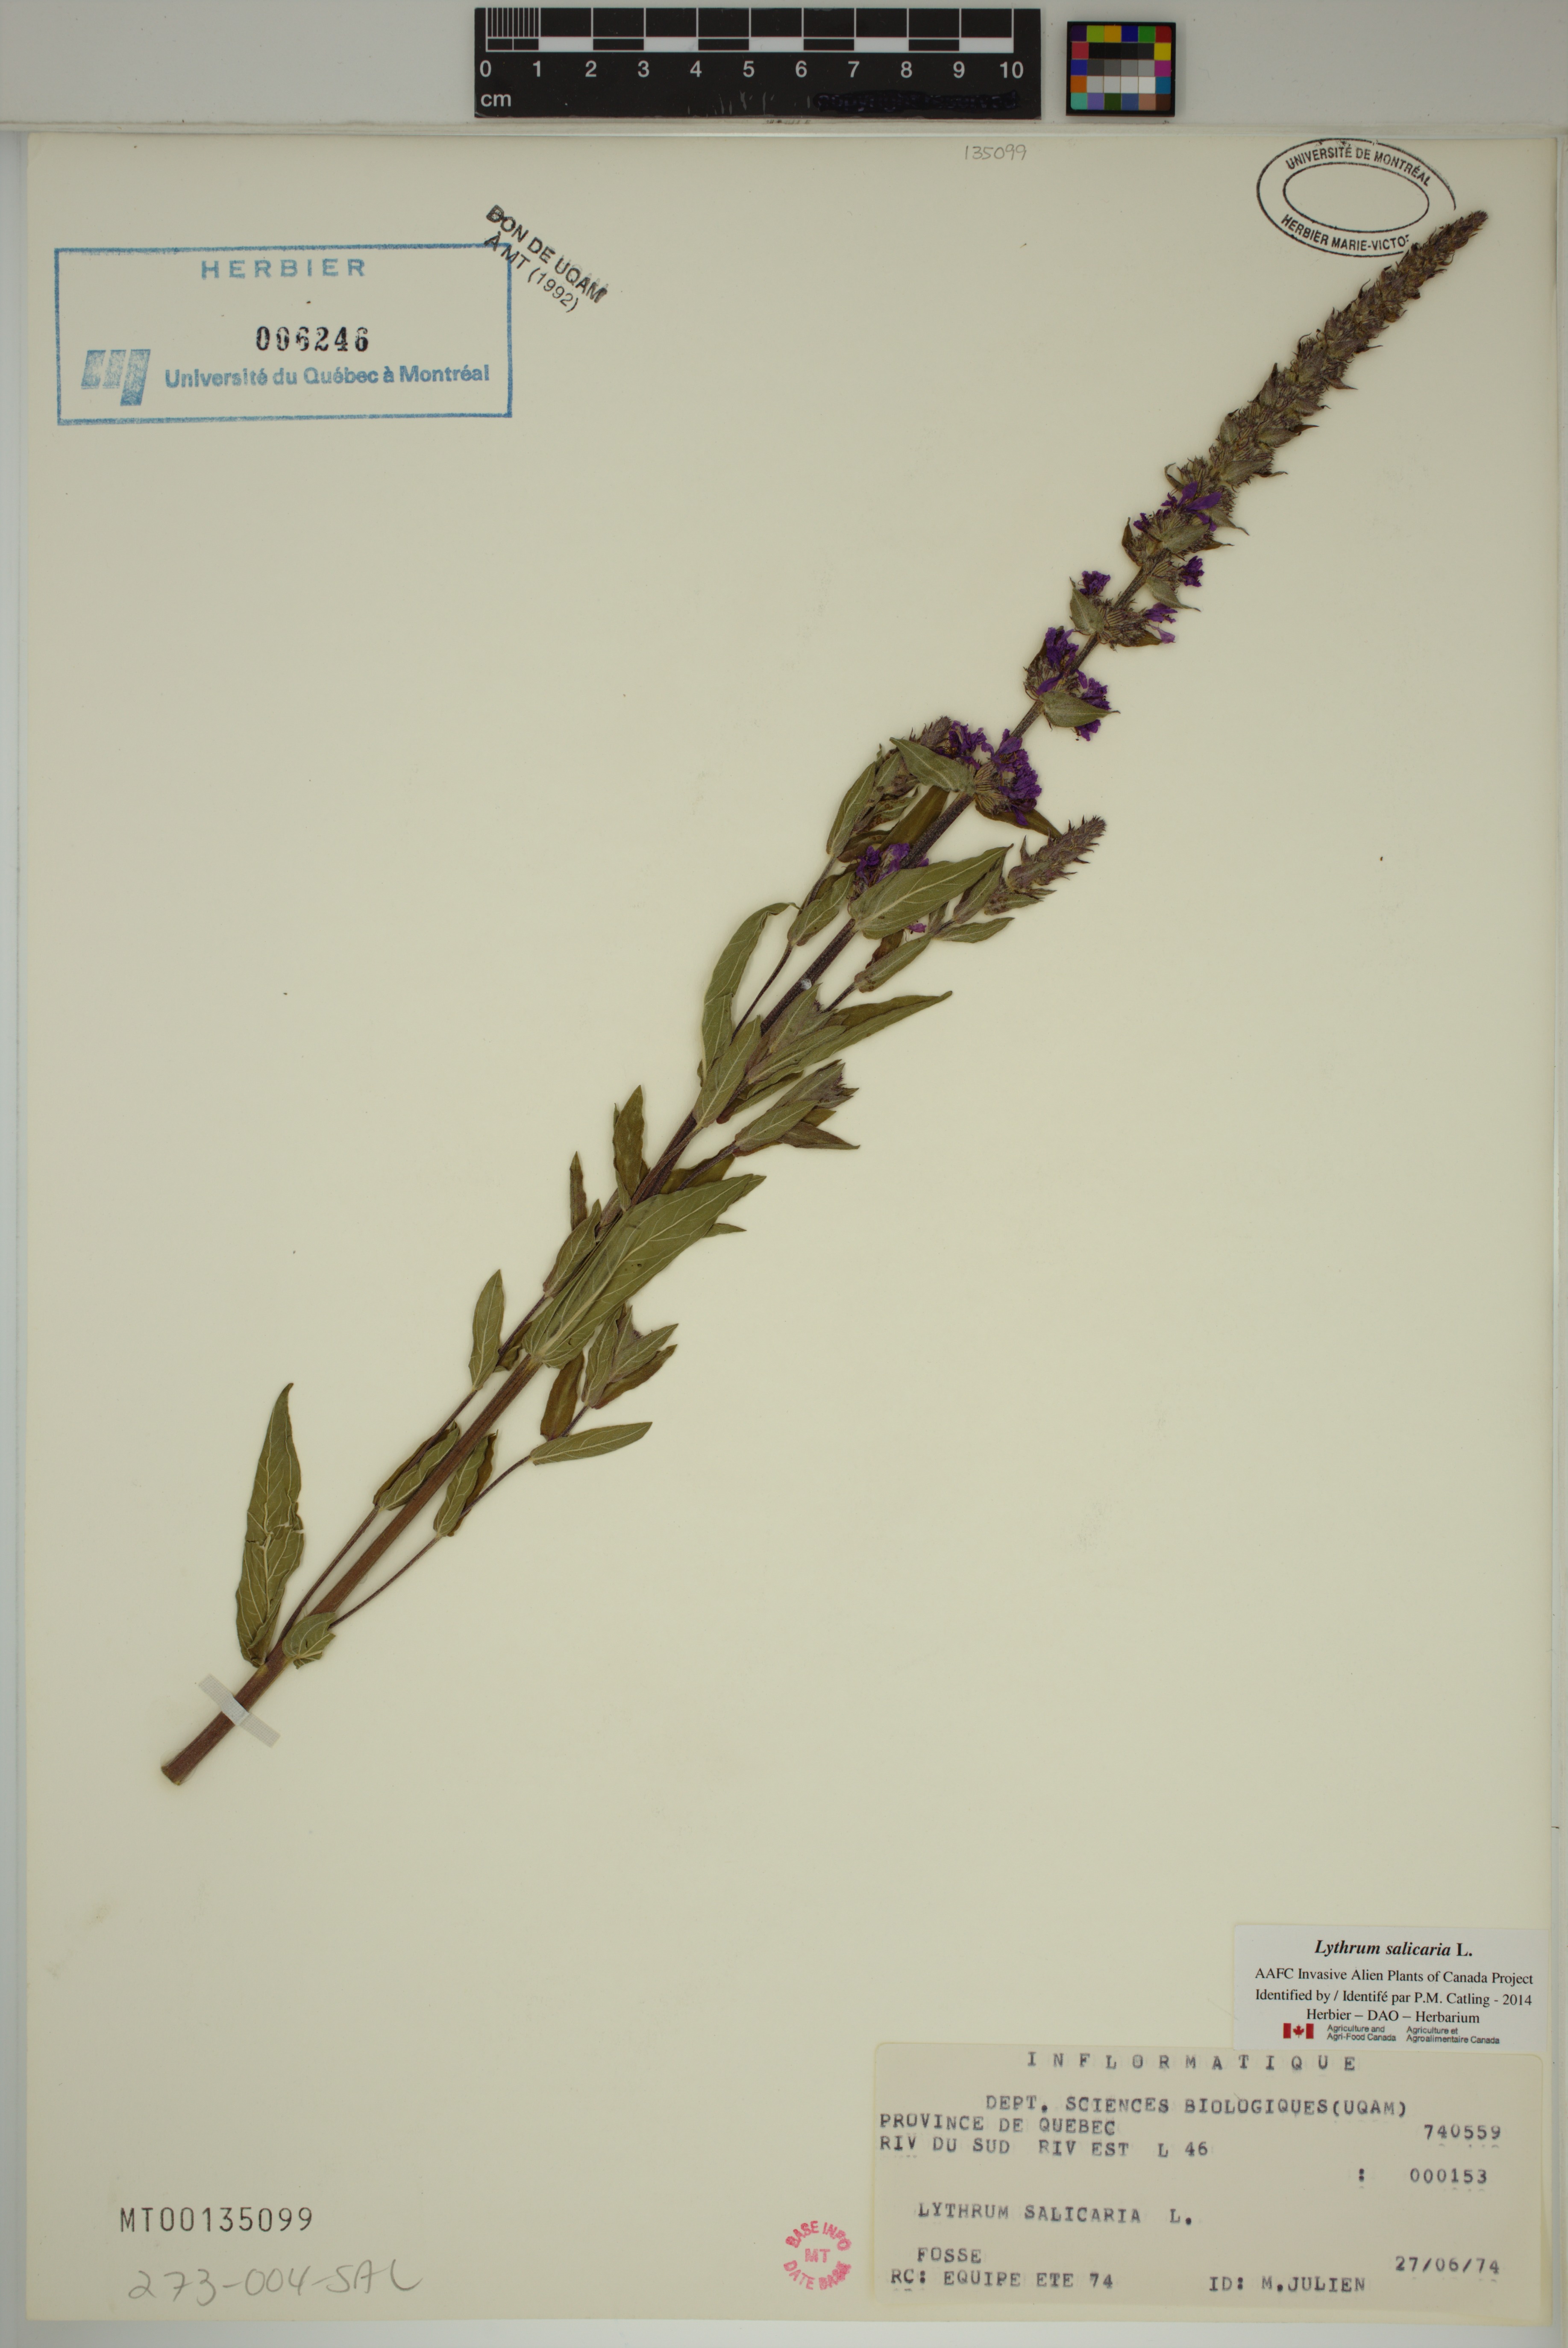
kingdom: Plantae
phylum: Tracheophyta
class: Magnoliopsida
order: Myrtales
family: Lythraceae
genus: Lythrum
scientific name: Lythrum salicaria
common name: Purple loosestrife
